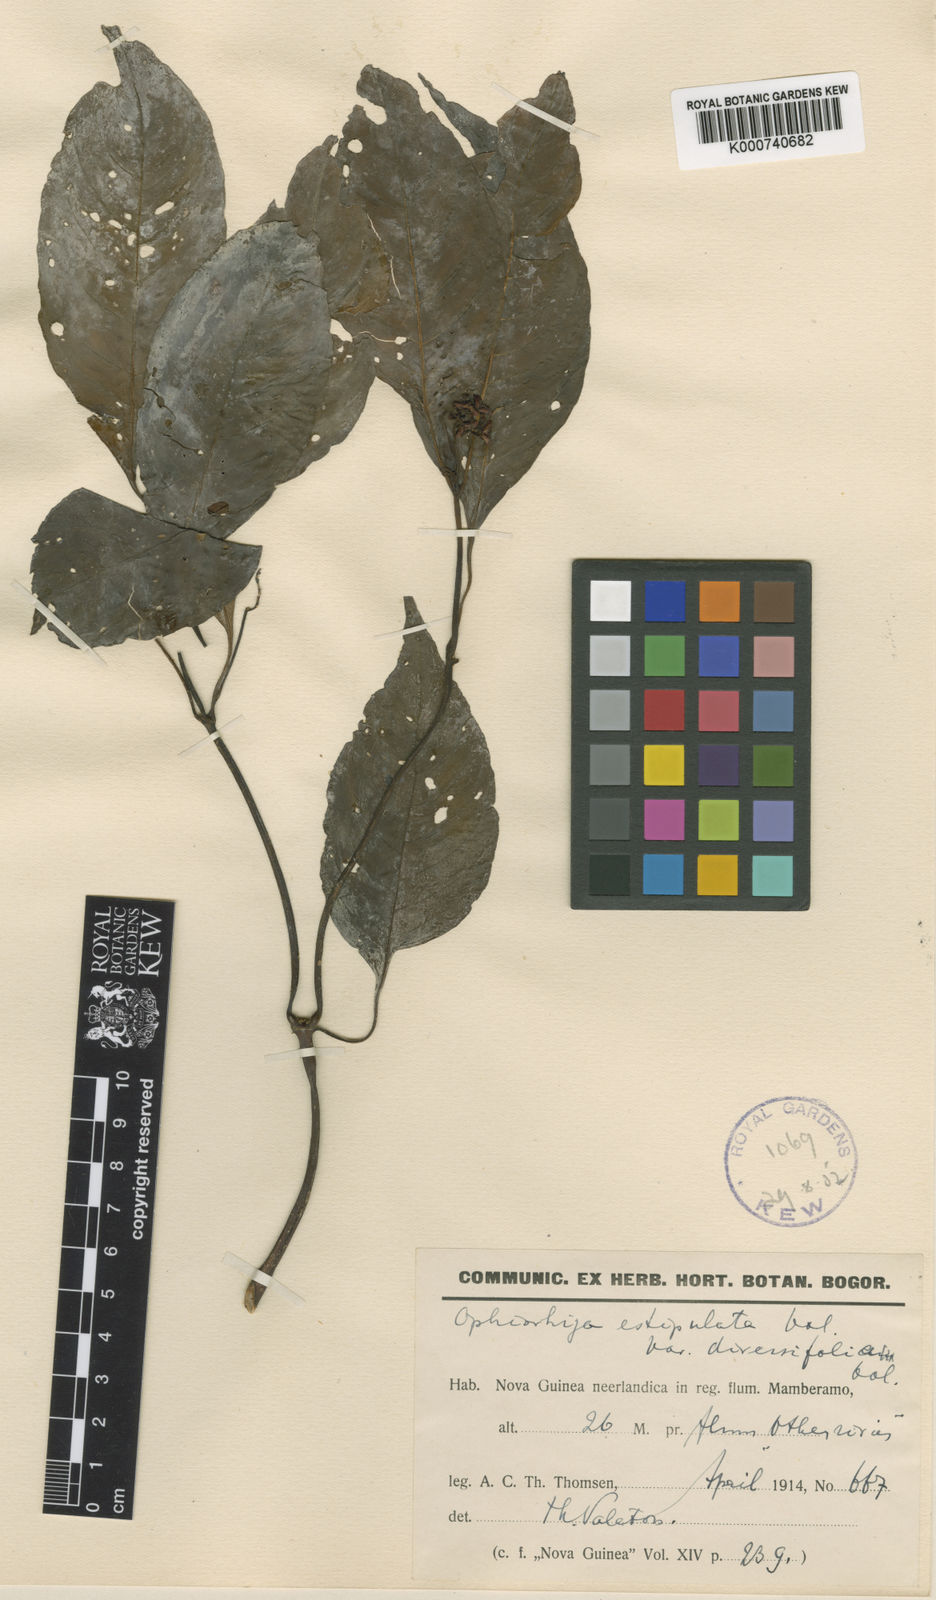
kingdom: Plantae
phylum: Tracheophyta
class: Magnoliopsida
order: Gentianales
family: Rubiaceae
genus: Ophiorrhiza
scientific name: Ophiorrhiza estipulata
